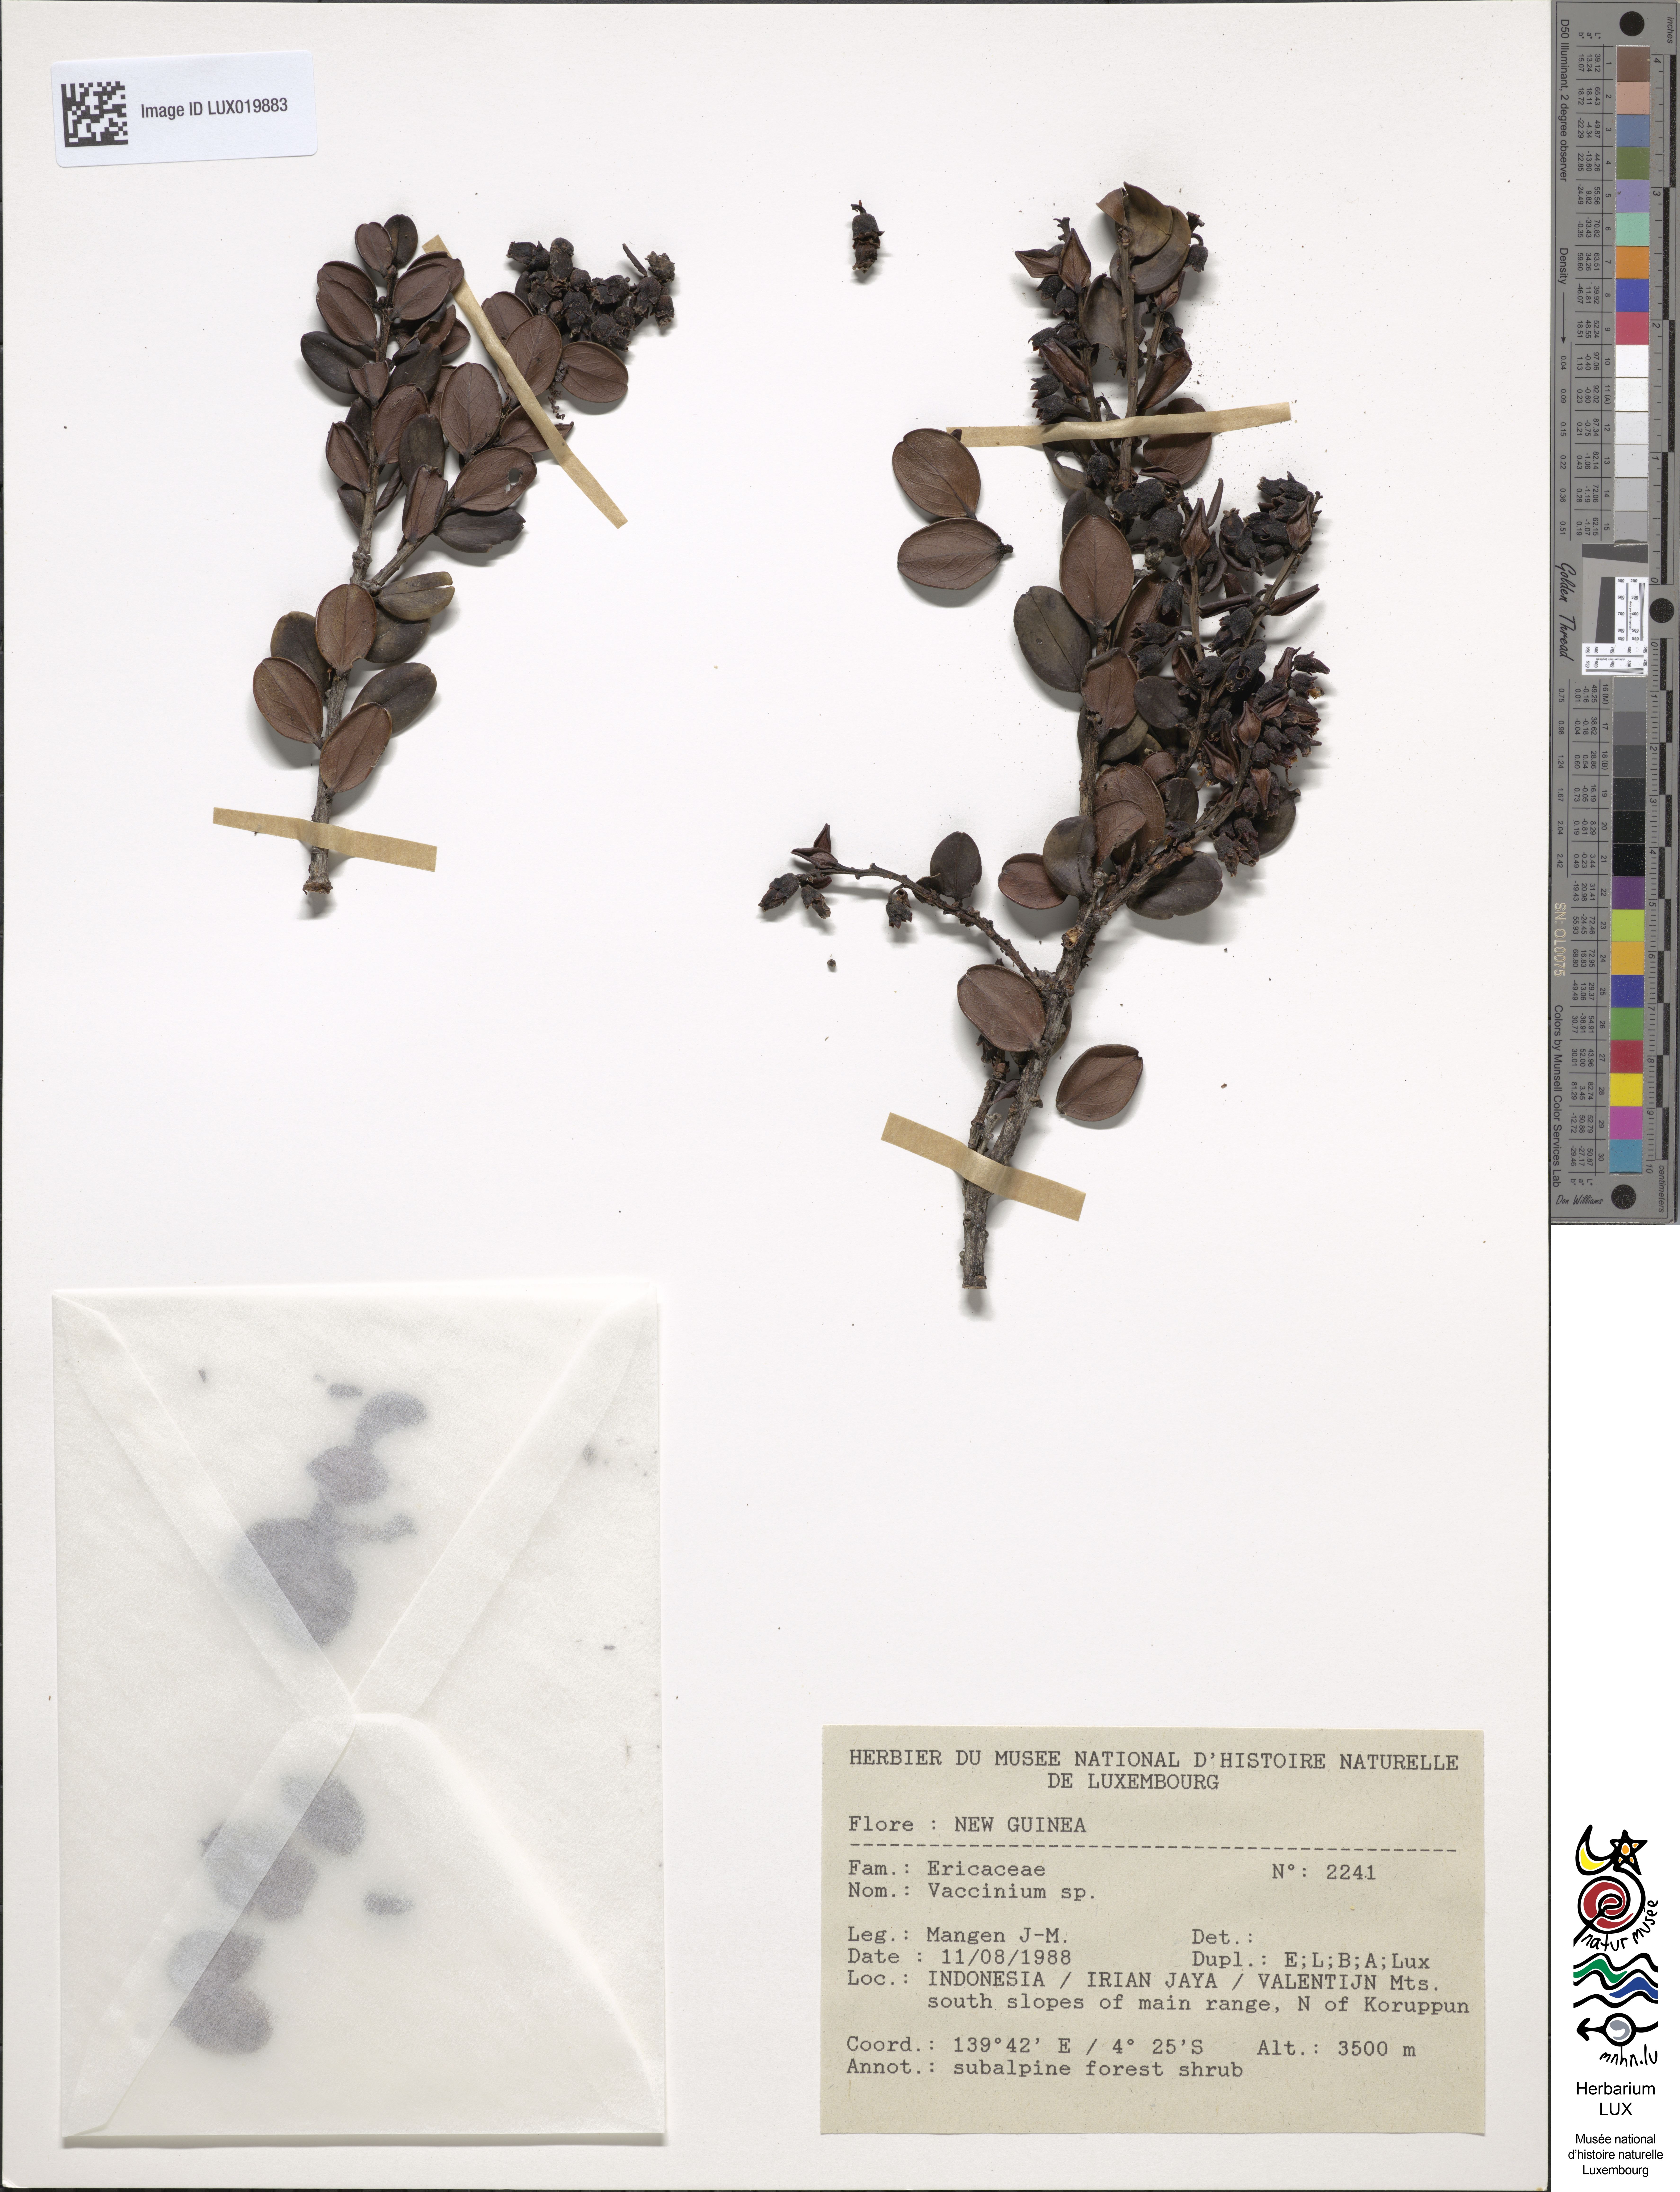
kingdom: Plantae
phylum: Tracheophyta
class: Magnoliopsida
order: Ericales
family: Ericaceae
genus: Vaccinium
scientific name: Vaccinium
